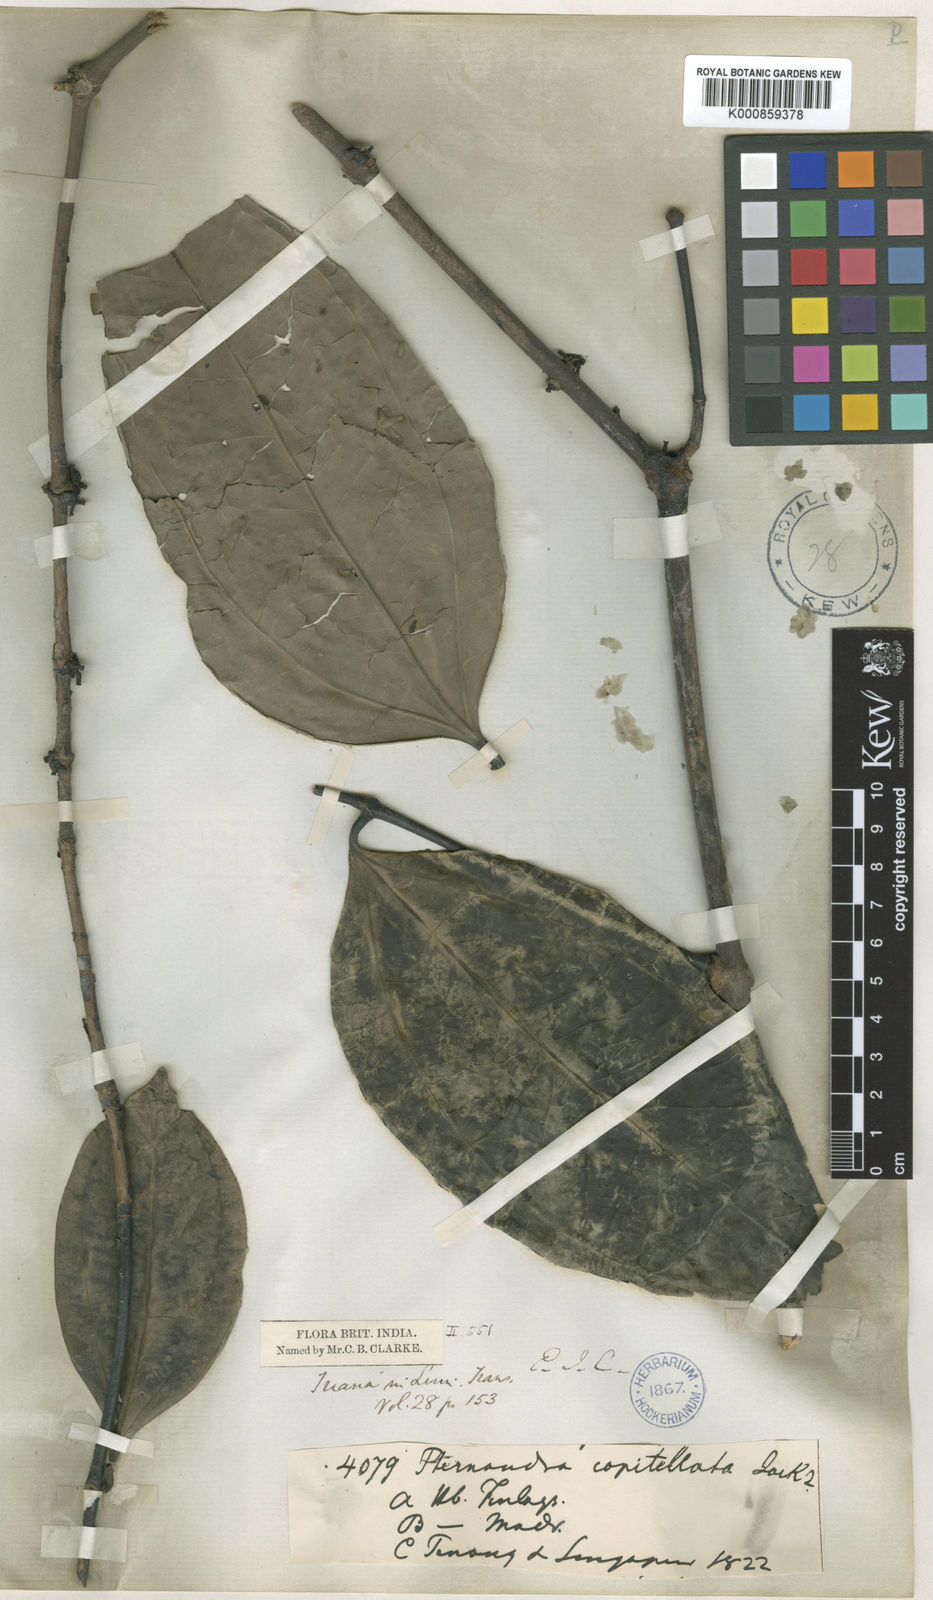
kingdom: Plantae
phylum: Tracheophyta
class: Magnoliopsida
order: Myrtales
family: Melastomataceae
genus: Pternandra
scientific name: Pternandra coerulescens
